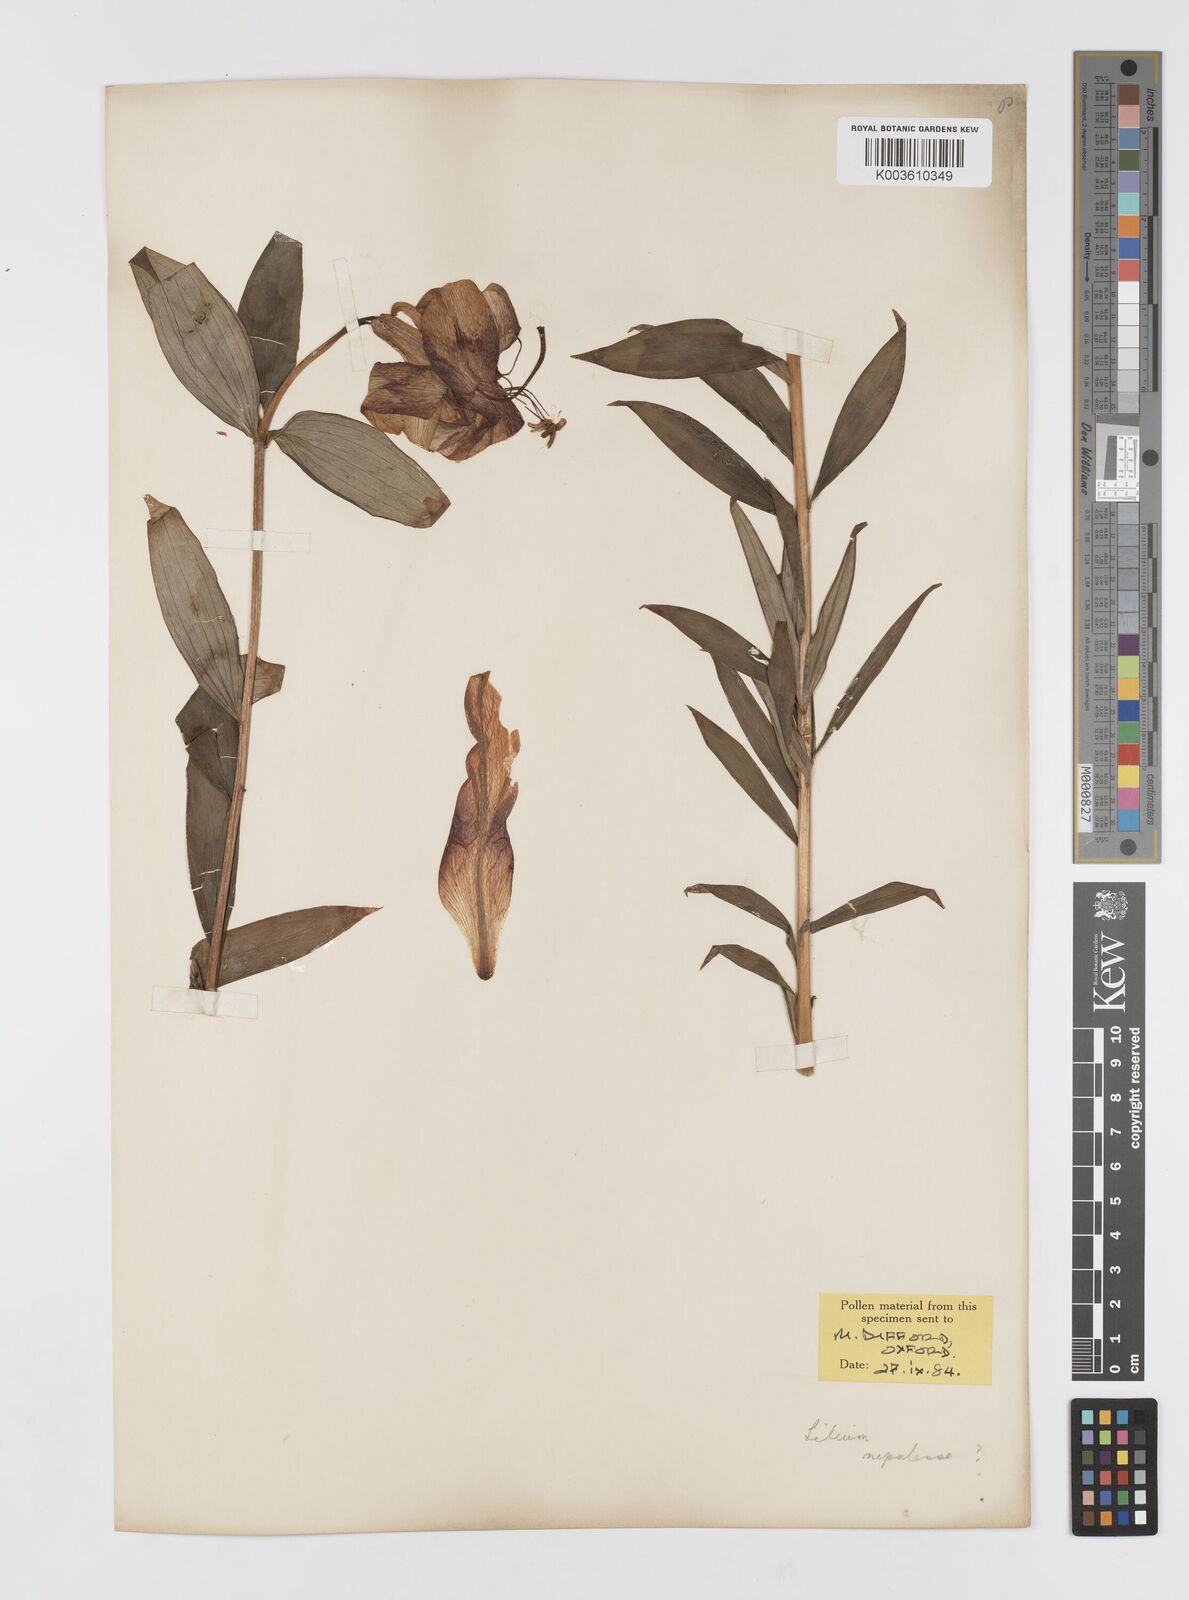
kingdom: Plantae
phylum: Tracheophyta
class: Liliopsida
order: Liliales
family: Liliaceae
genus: Lilium
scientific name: Lilium
